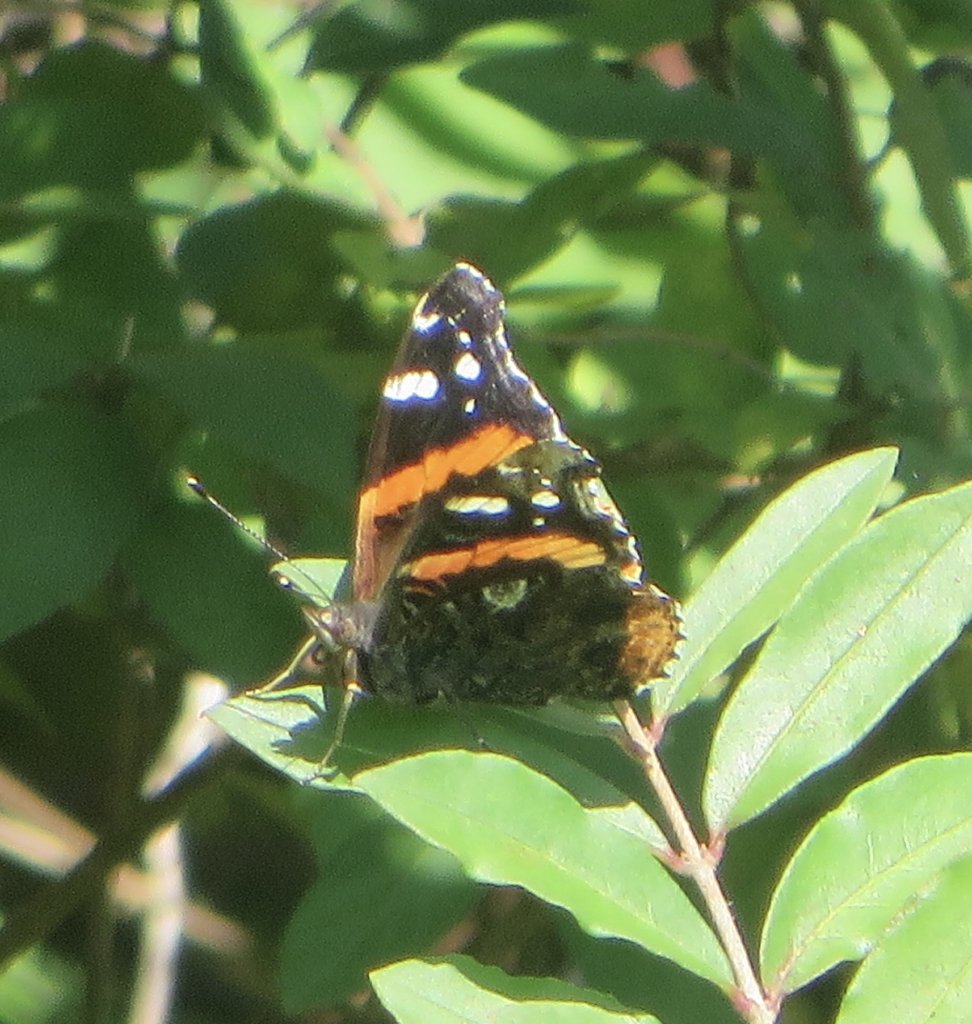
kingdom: Animalia
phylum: Arthropoda
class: Insecta
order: Lepidoptera
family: Nymphalidae
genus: Vanessa
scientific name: Vanessa atalanta
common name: Red Admiral
